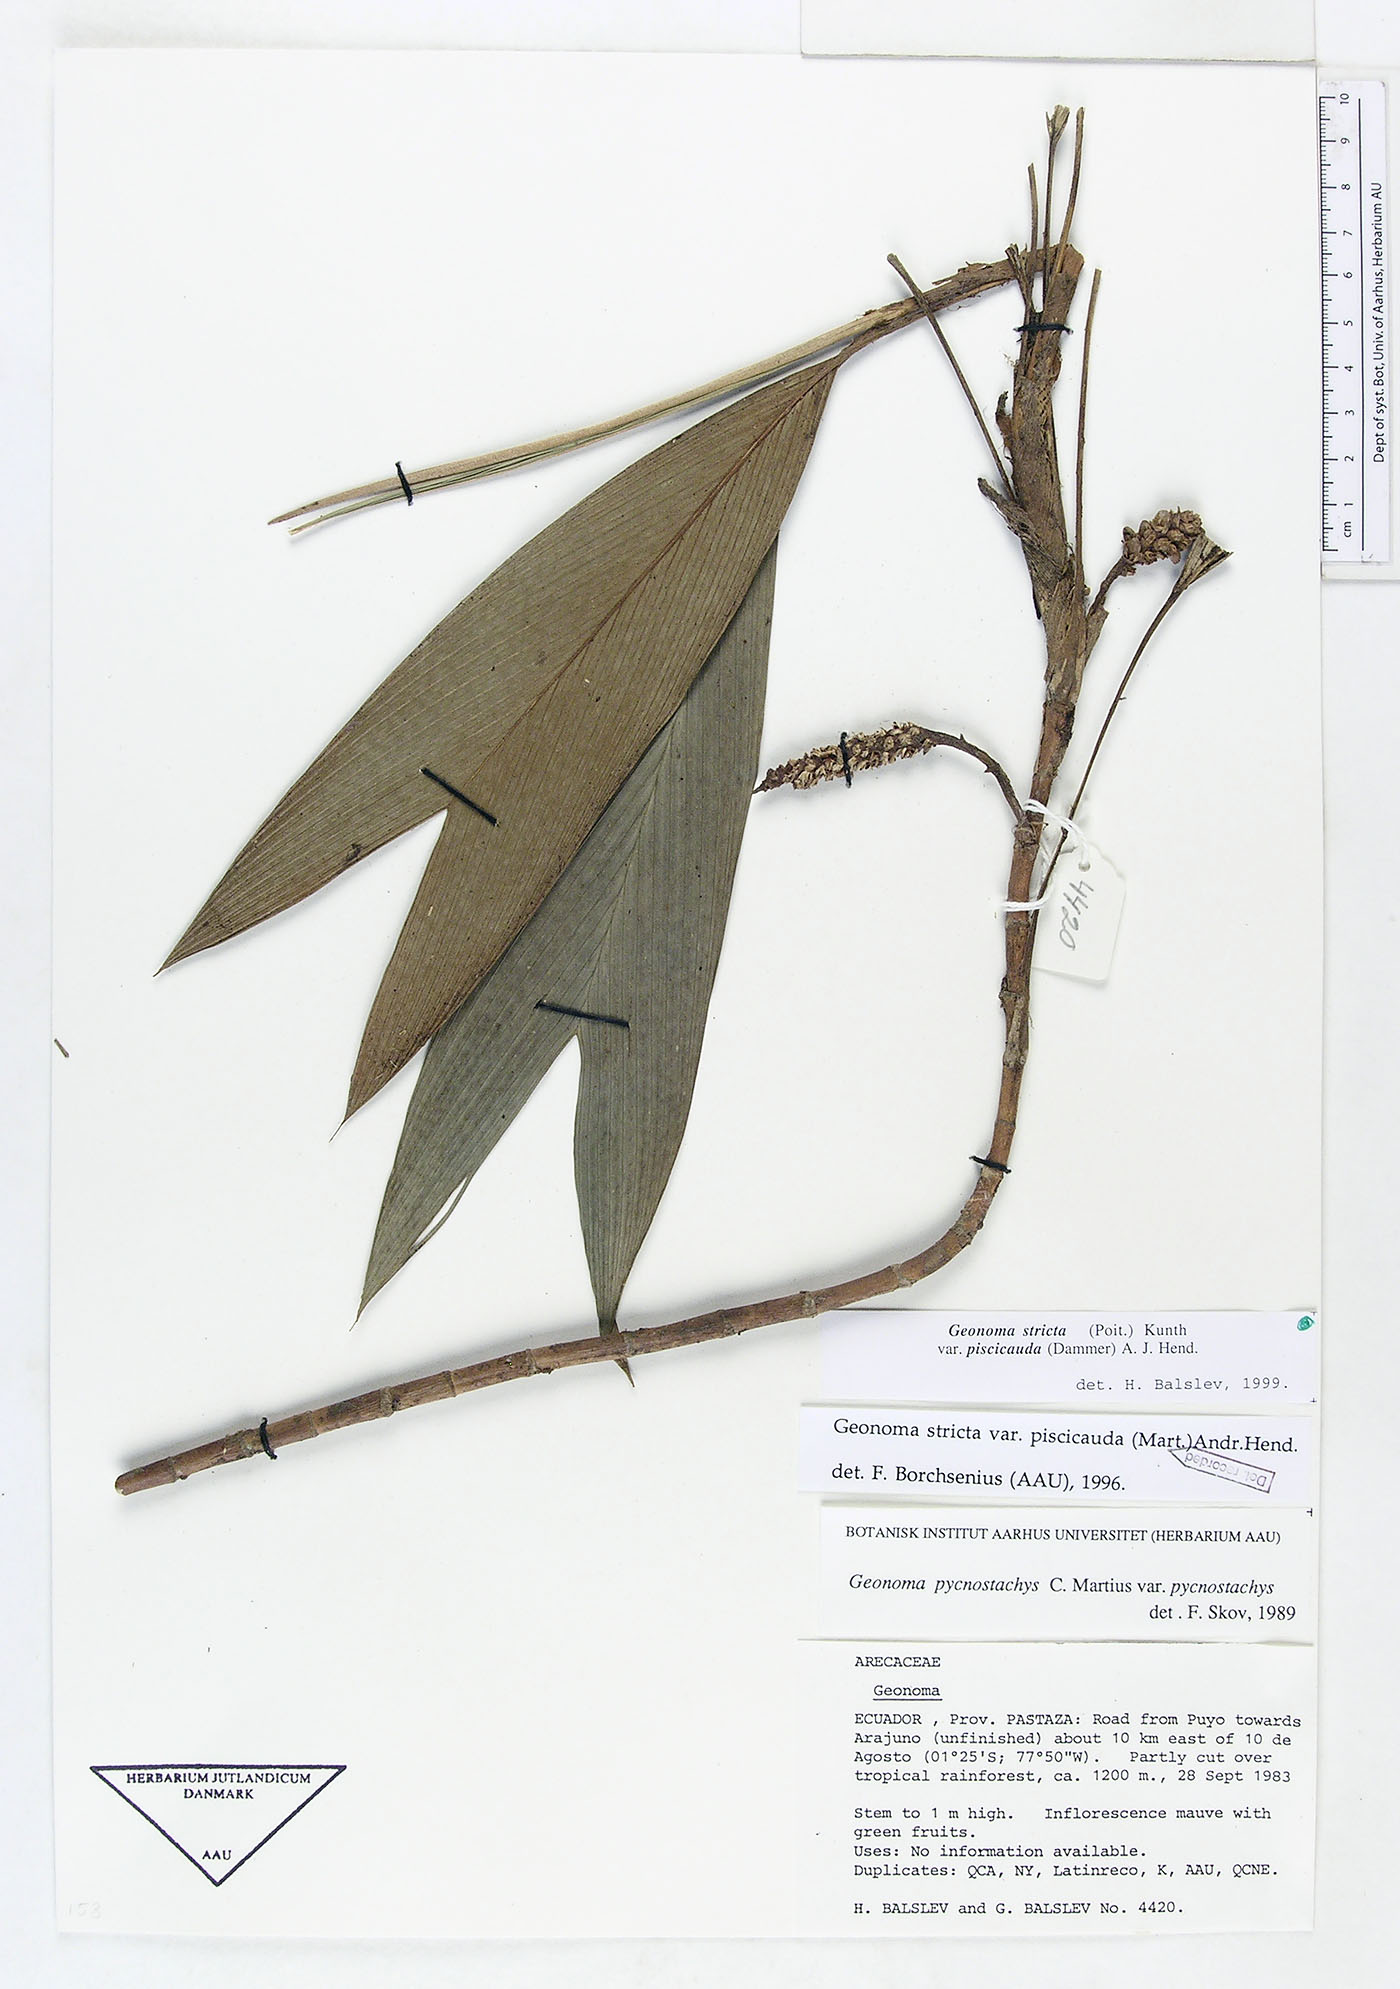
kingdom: Plantae
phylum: Tracheophyta
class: Liliopsida
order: Arecales
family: Arecaceae
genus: Geonoma
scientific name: Geonoma stricta
